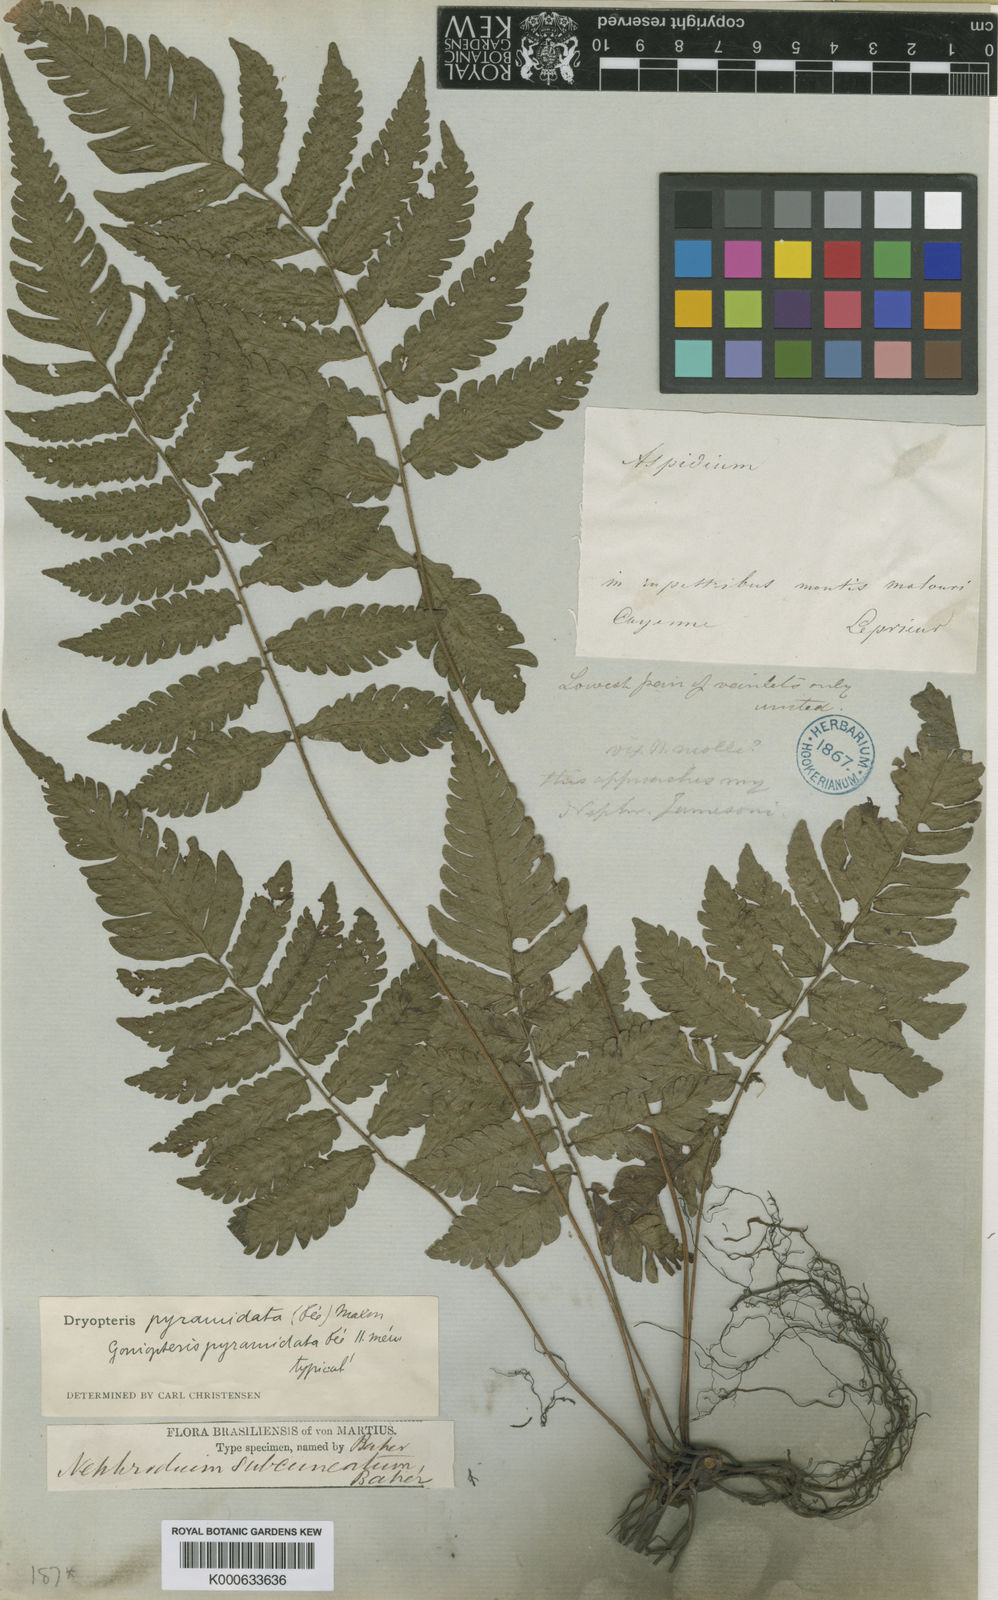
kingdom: Plantae
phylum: Tracheophyta
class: Polypodiopsida
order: Polypodiales
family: Thelypteridaceae
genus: Goniopteris
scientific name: Goniopteris abrupta
